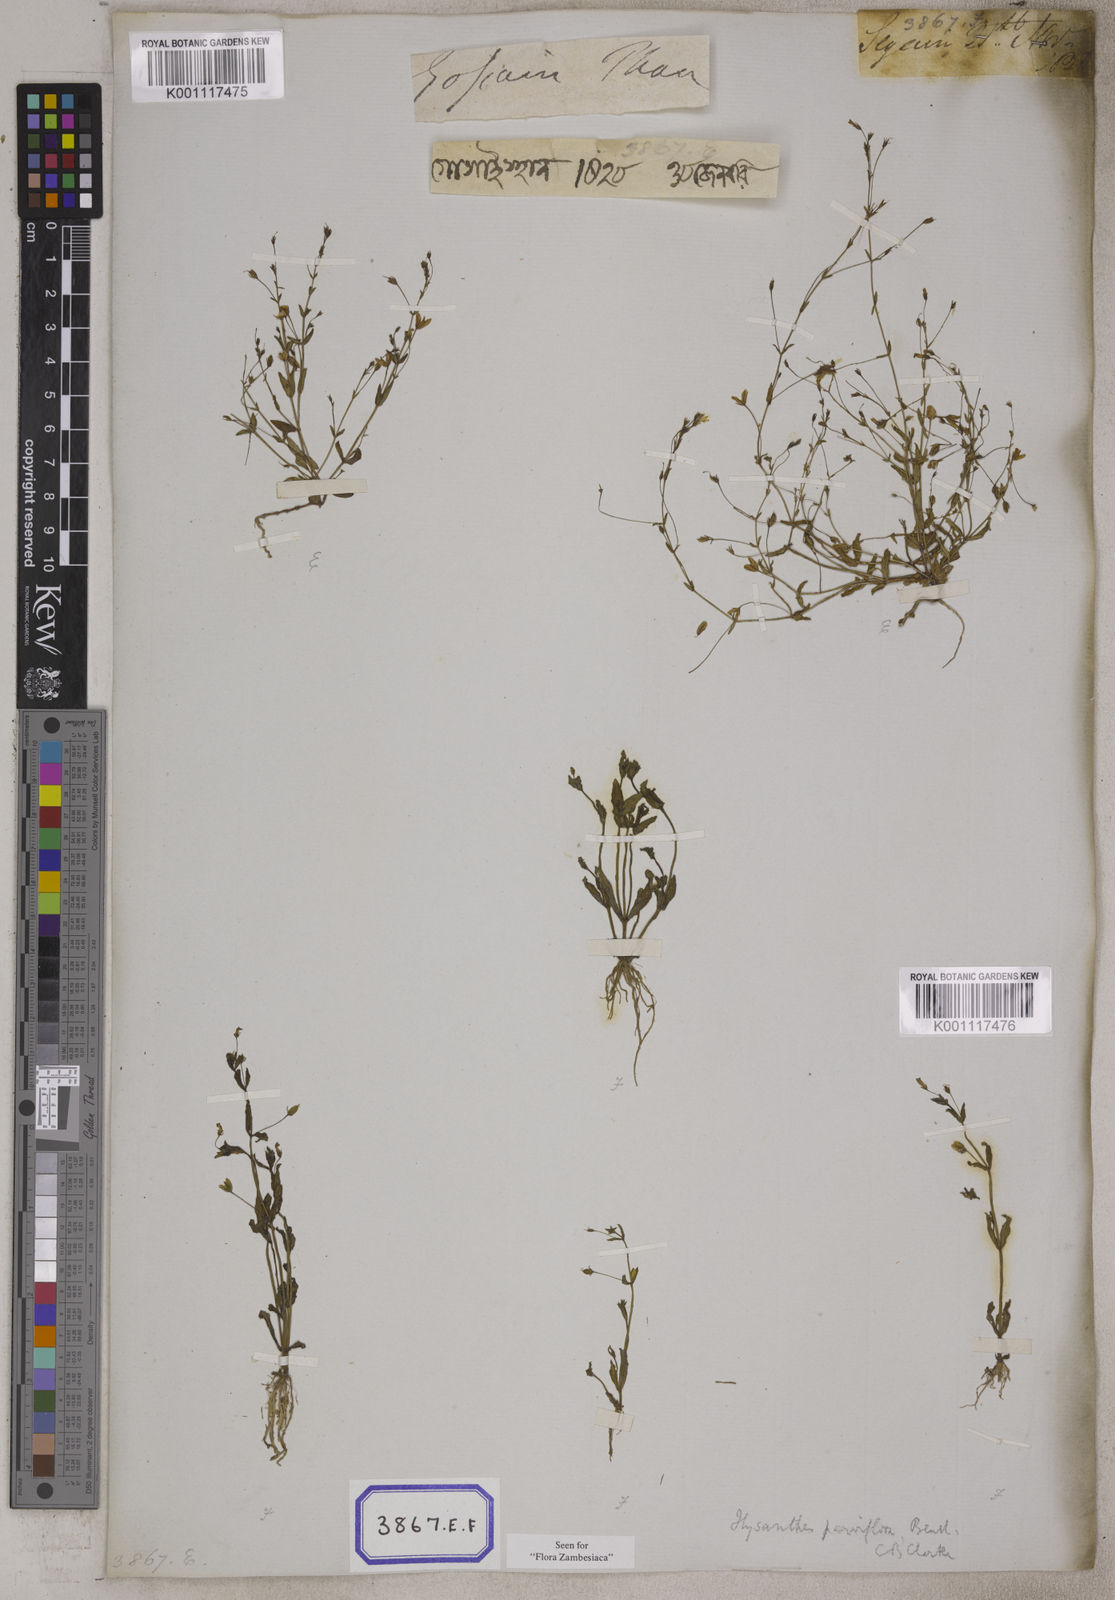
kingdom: Plantae
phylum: Tracheophyta
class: Magnoliopsida
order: Lamiales
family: Linderniaceae
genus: Lindernia
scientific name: Lindernia parviflora
